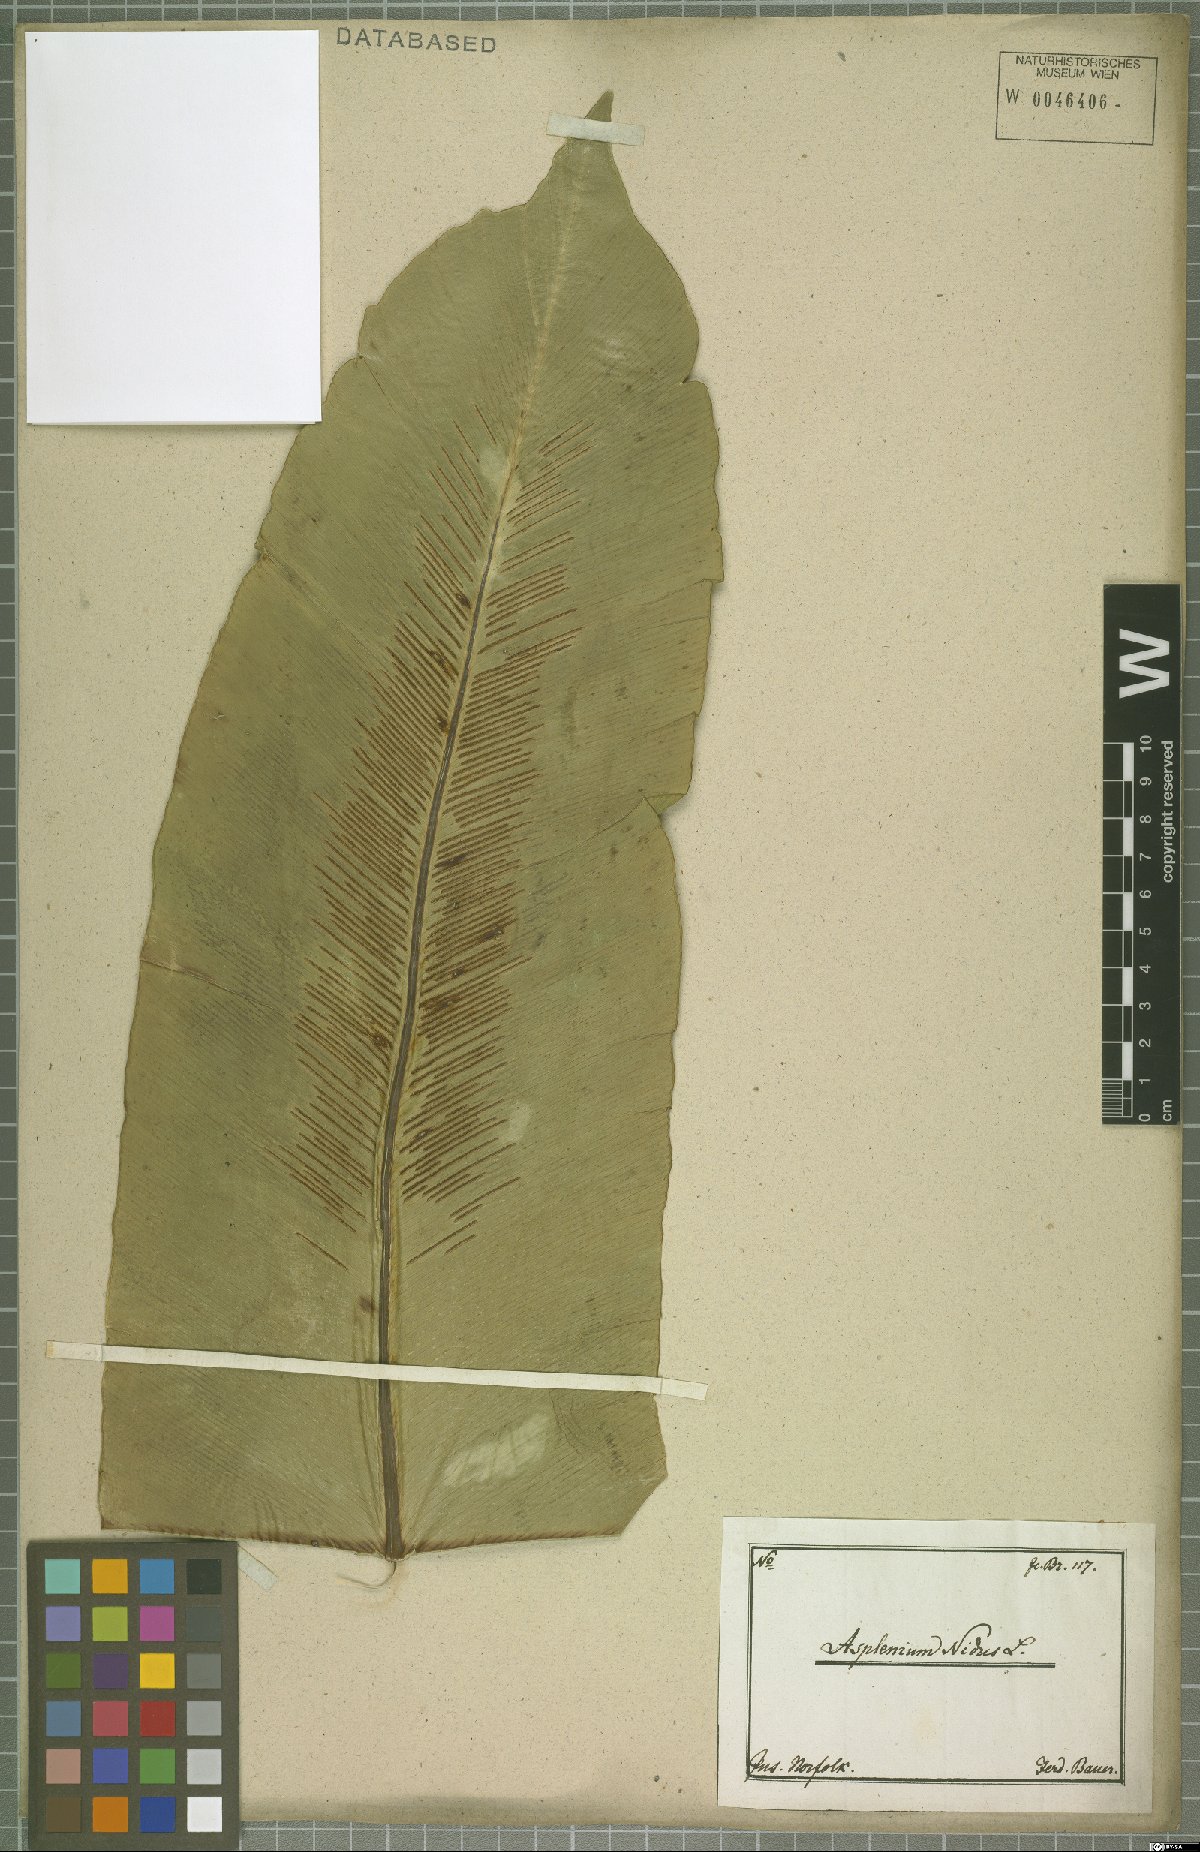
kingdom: Plantae
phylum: Tracheophyta
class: Polypodiopsida
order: Polypodiales
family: Aspleniaceae
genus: Asplenium
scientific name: Asplenium nidus
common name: Bird's-nest fern
